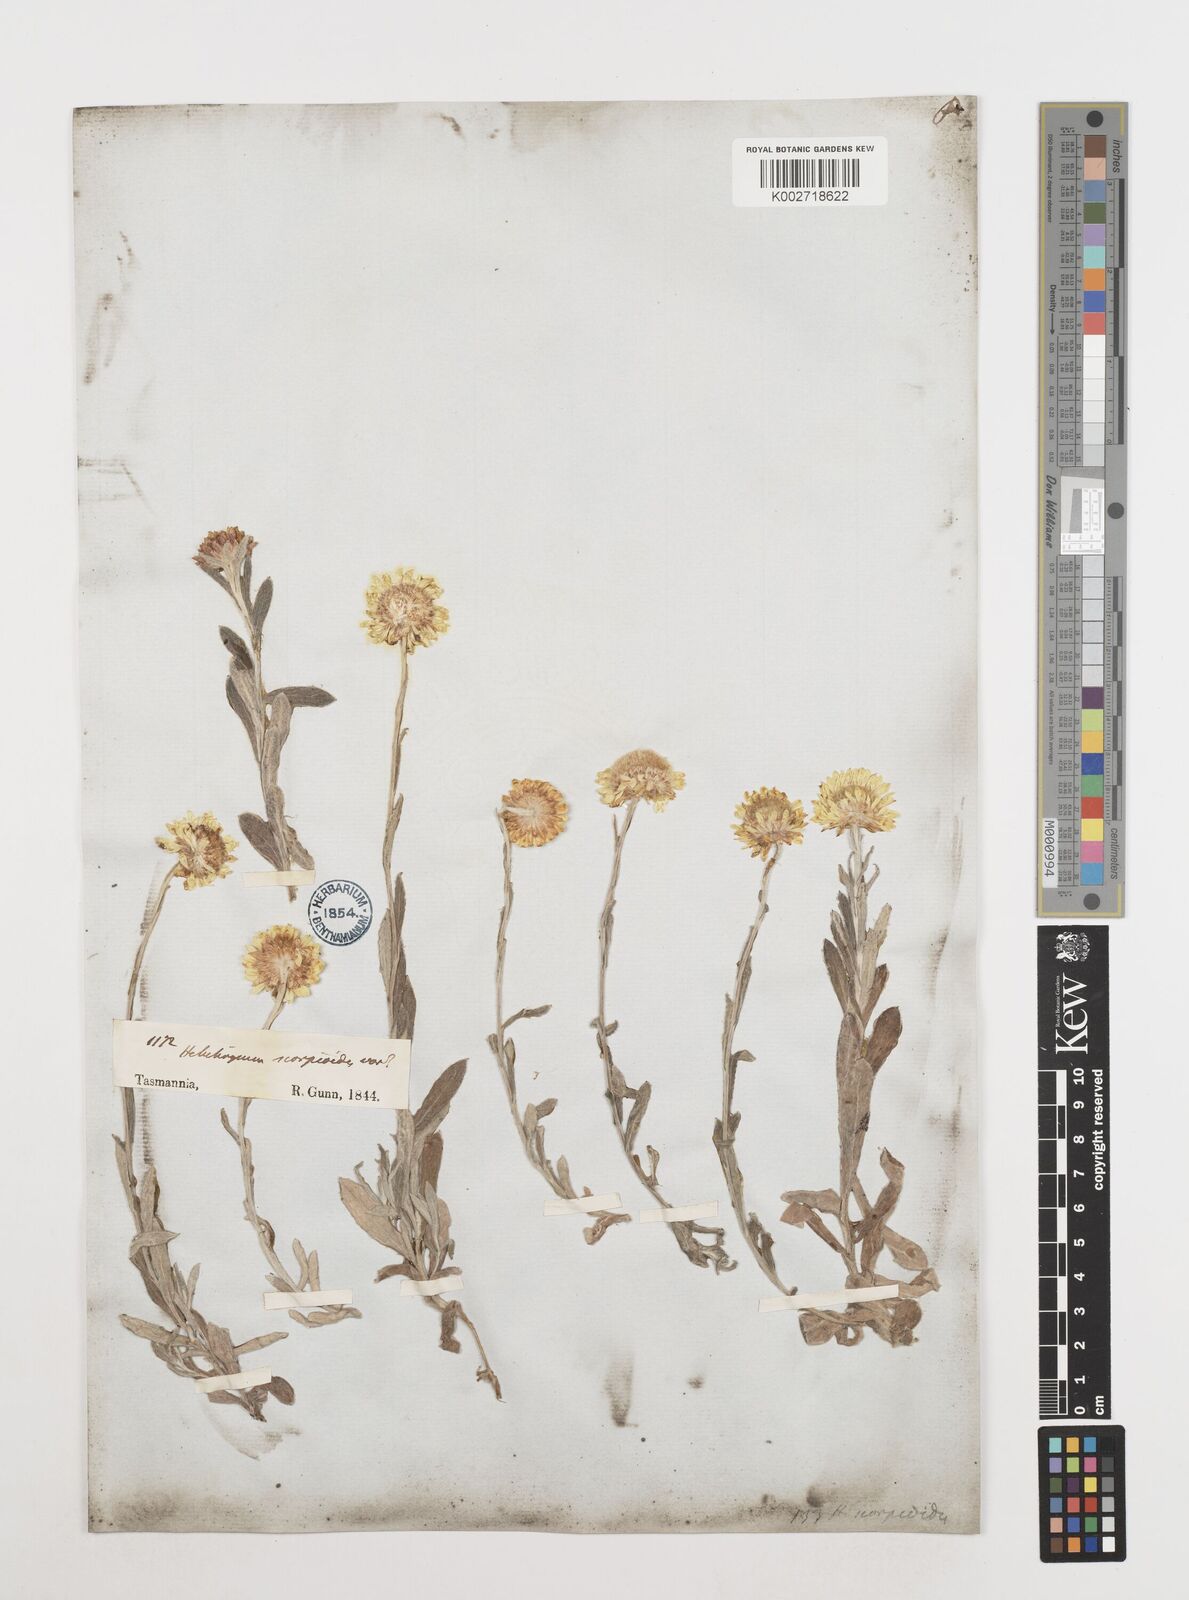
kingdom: Plantae
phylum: Tracheophyta
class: Magnoliopsida
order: Asterales
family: Asteraceae
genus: Coronidium
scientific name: Coronidium scorpioides
